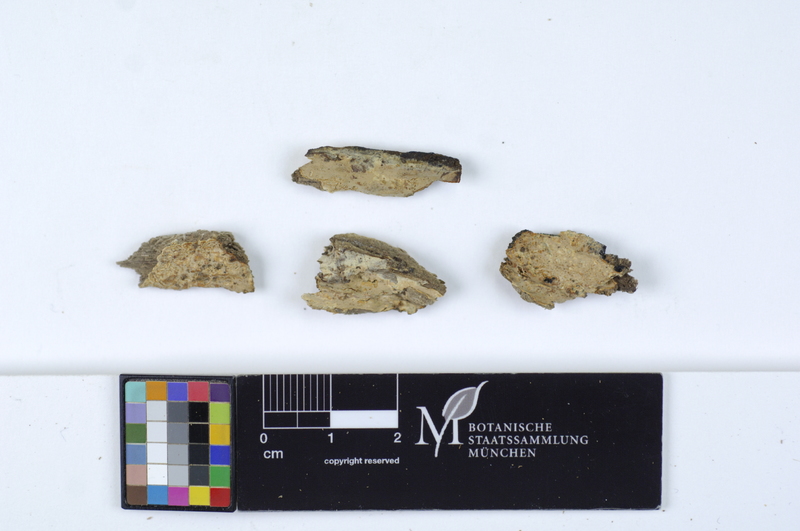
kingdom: Fungi
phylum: Basidiomycota
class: Agaricomycetes
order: Russulales
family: Peniophoraceae
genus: Gloiothele
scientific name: Gloiothele lactescens
